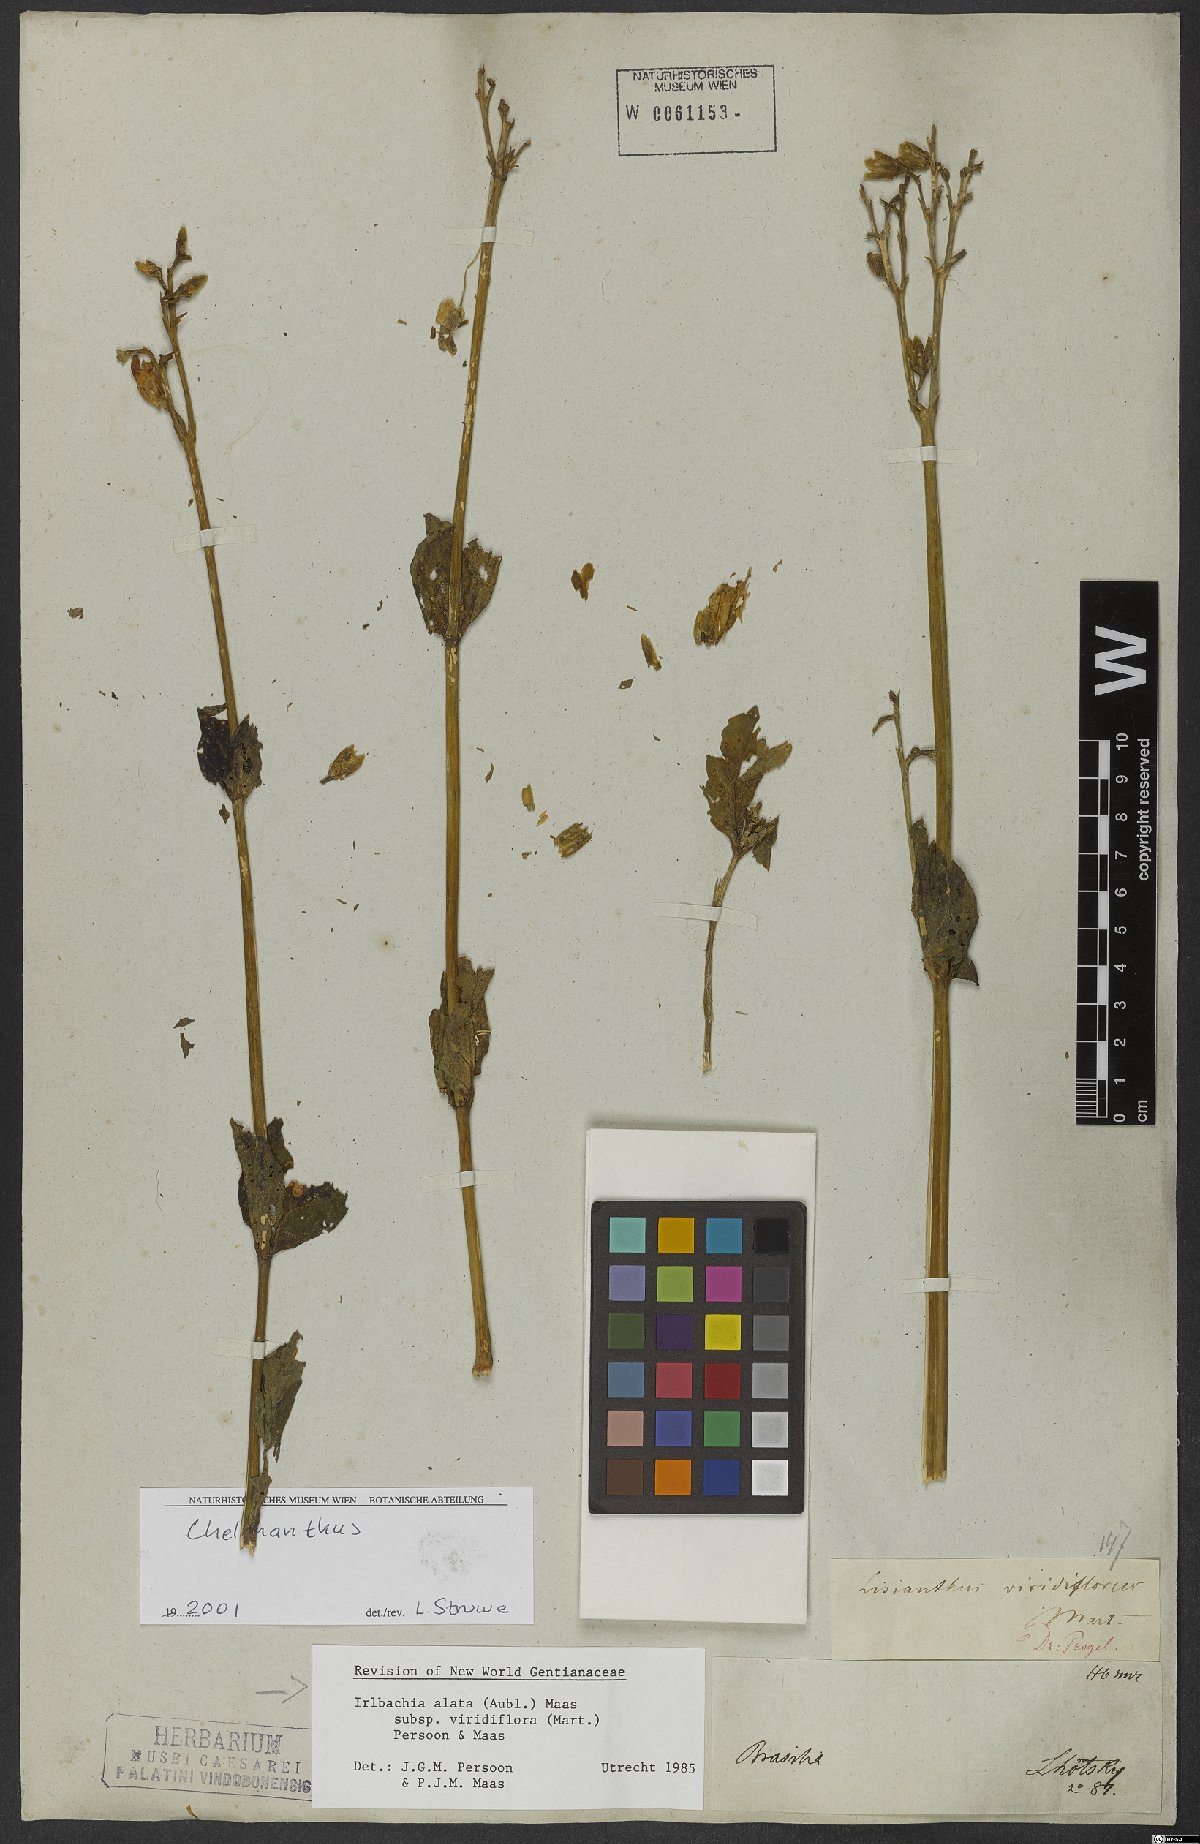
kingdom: Plantae
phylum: Tracheophyta
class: Magnoliopsida
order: Gentianales
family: Gentianaceae
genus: Chelonanthus
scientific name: Chelonanthus viridiflorus
